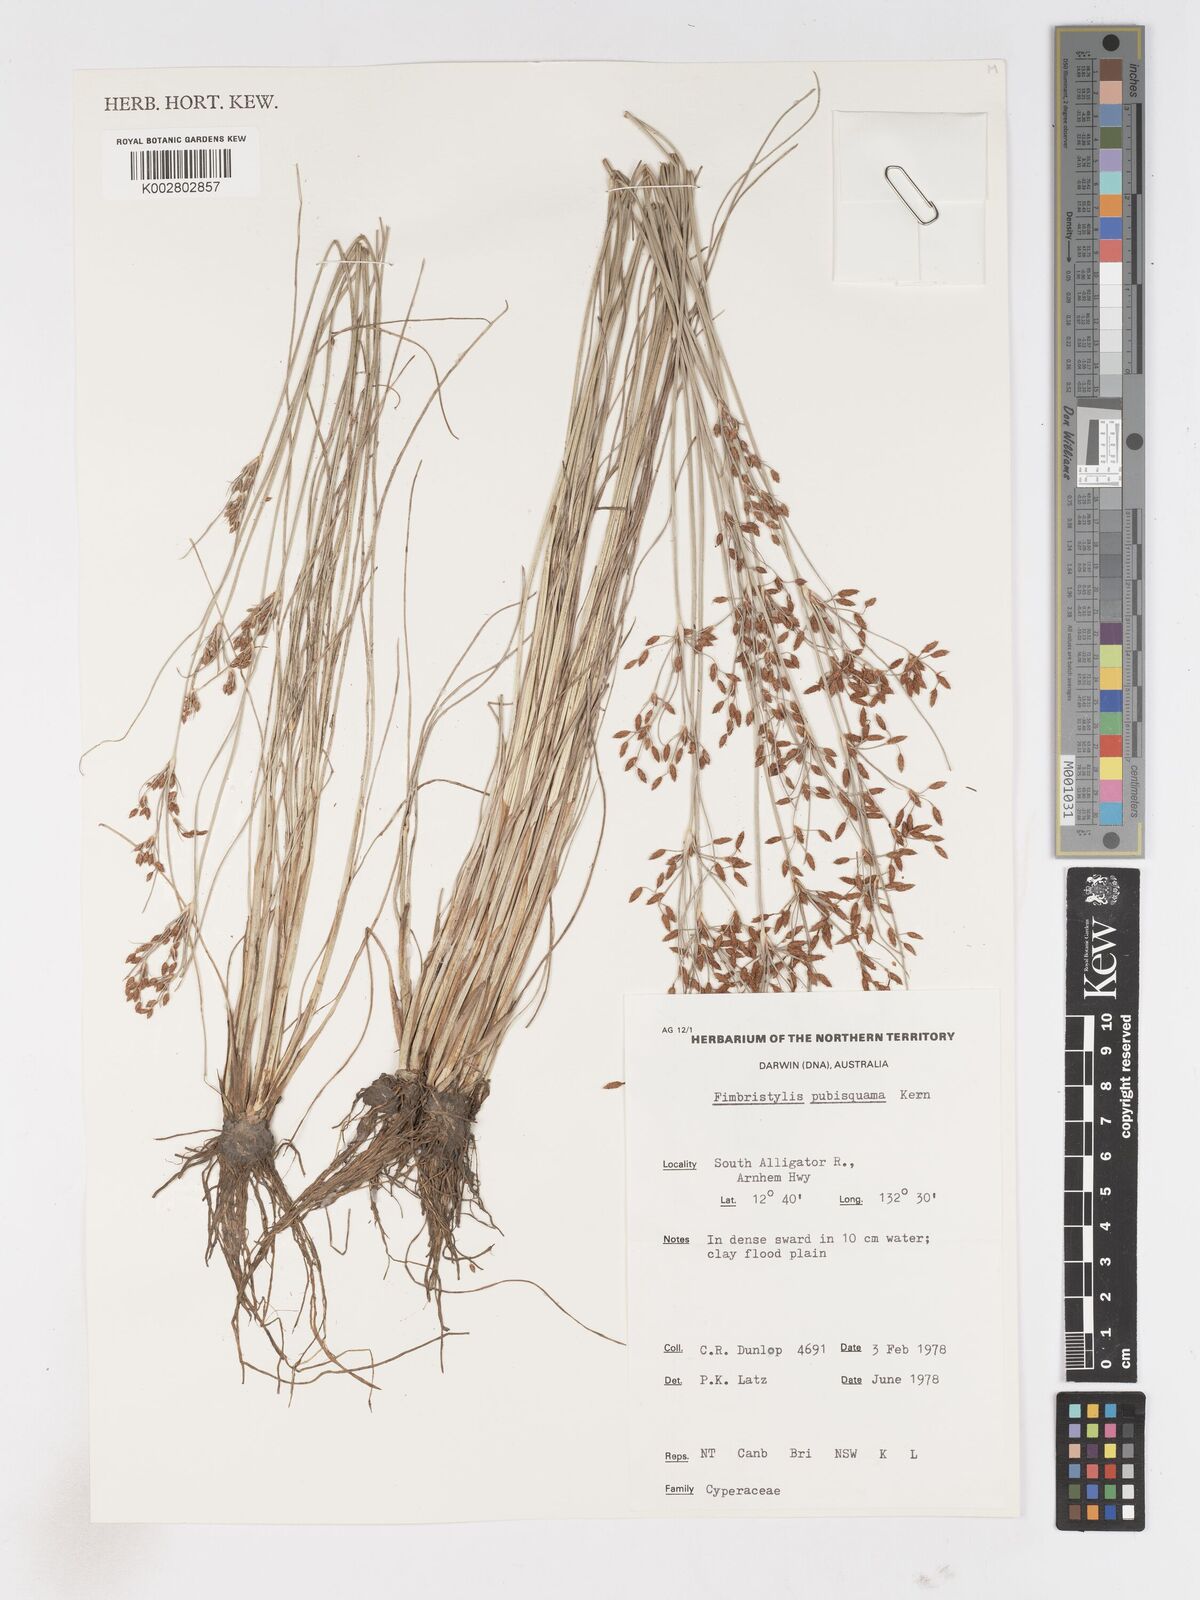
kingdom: Plantae
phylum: Tracheophyta
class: Liliopsida
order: Poales
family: Cyperaceae
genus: Fimbristylis
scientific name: Fimbristylis pubisquama
